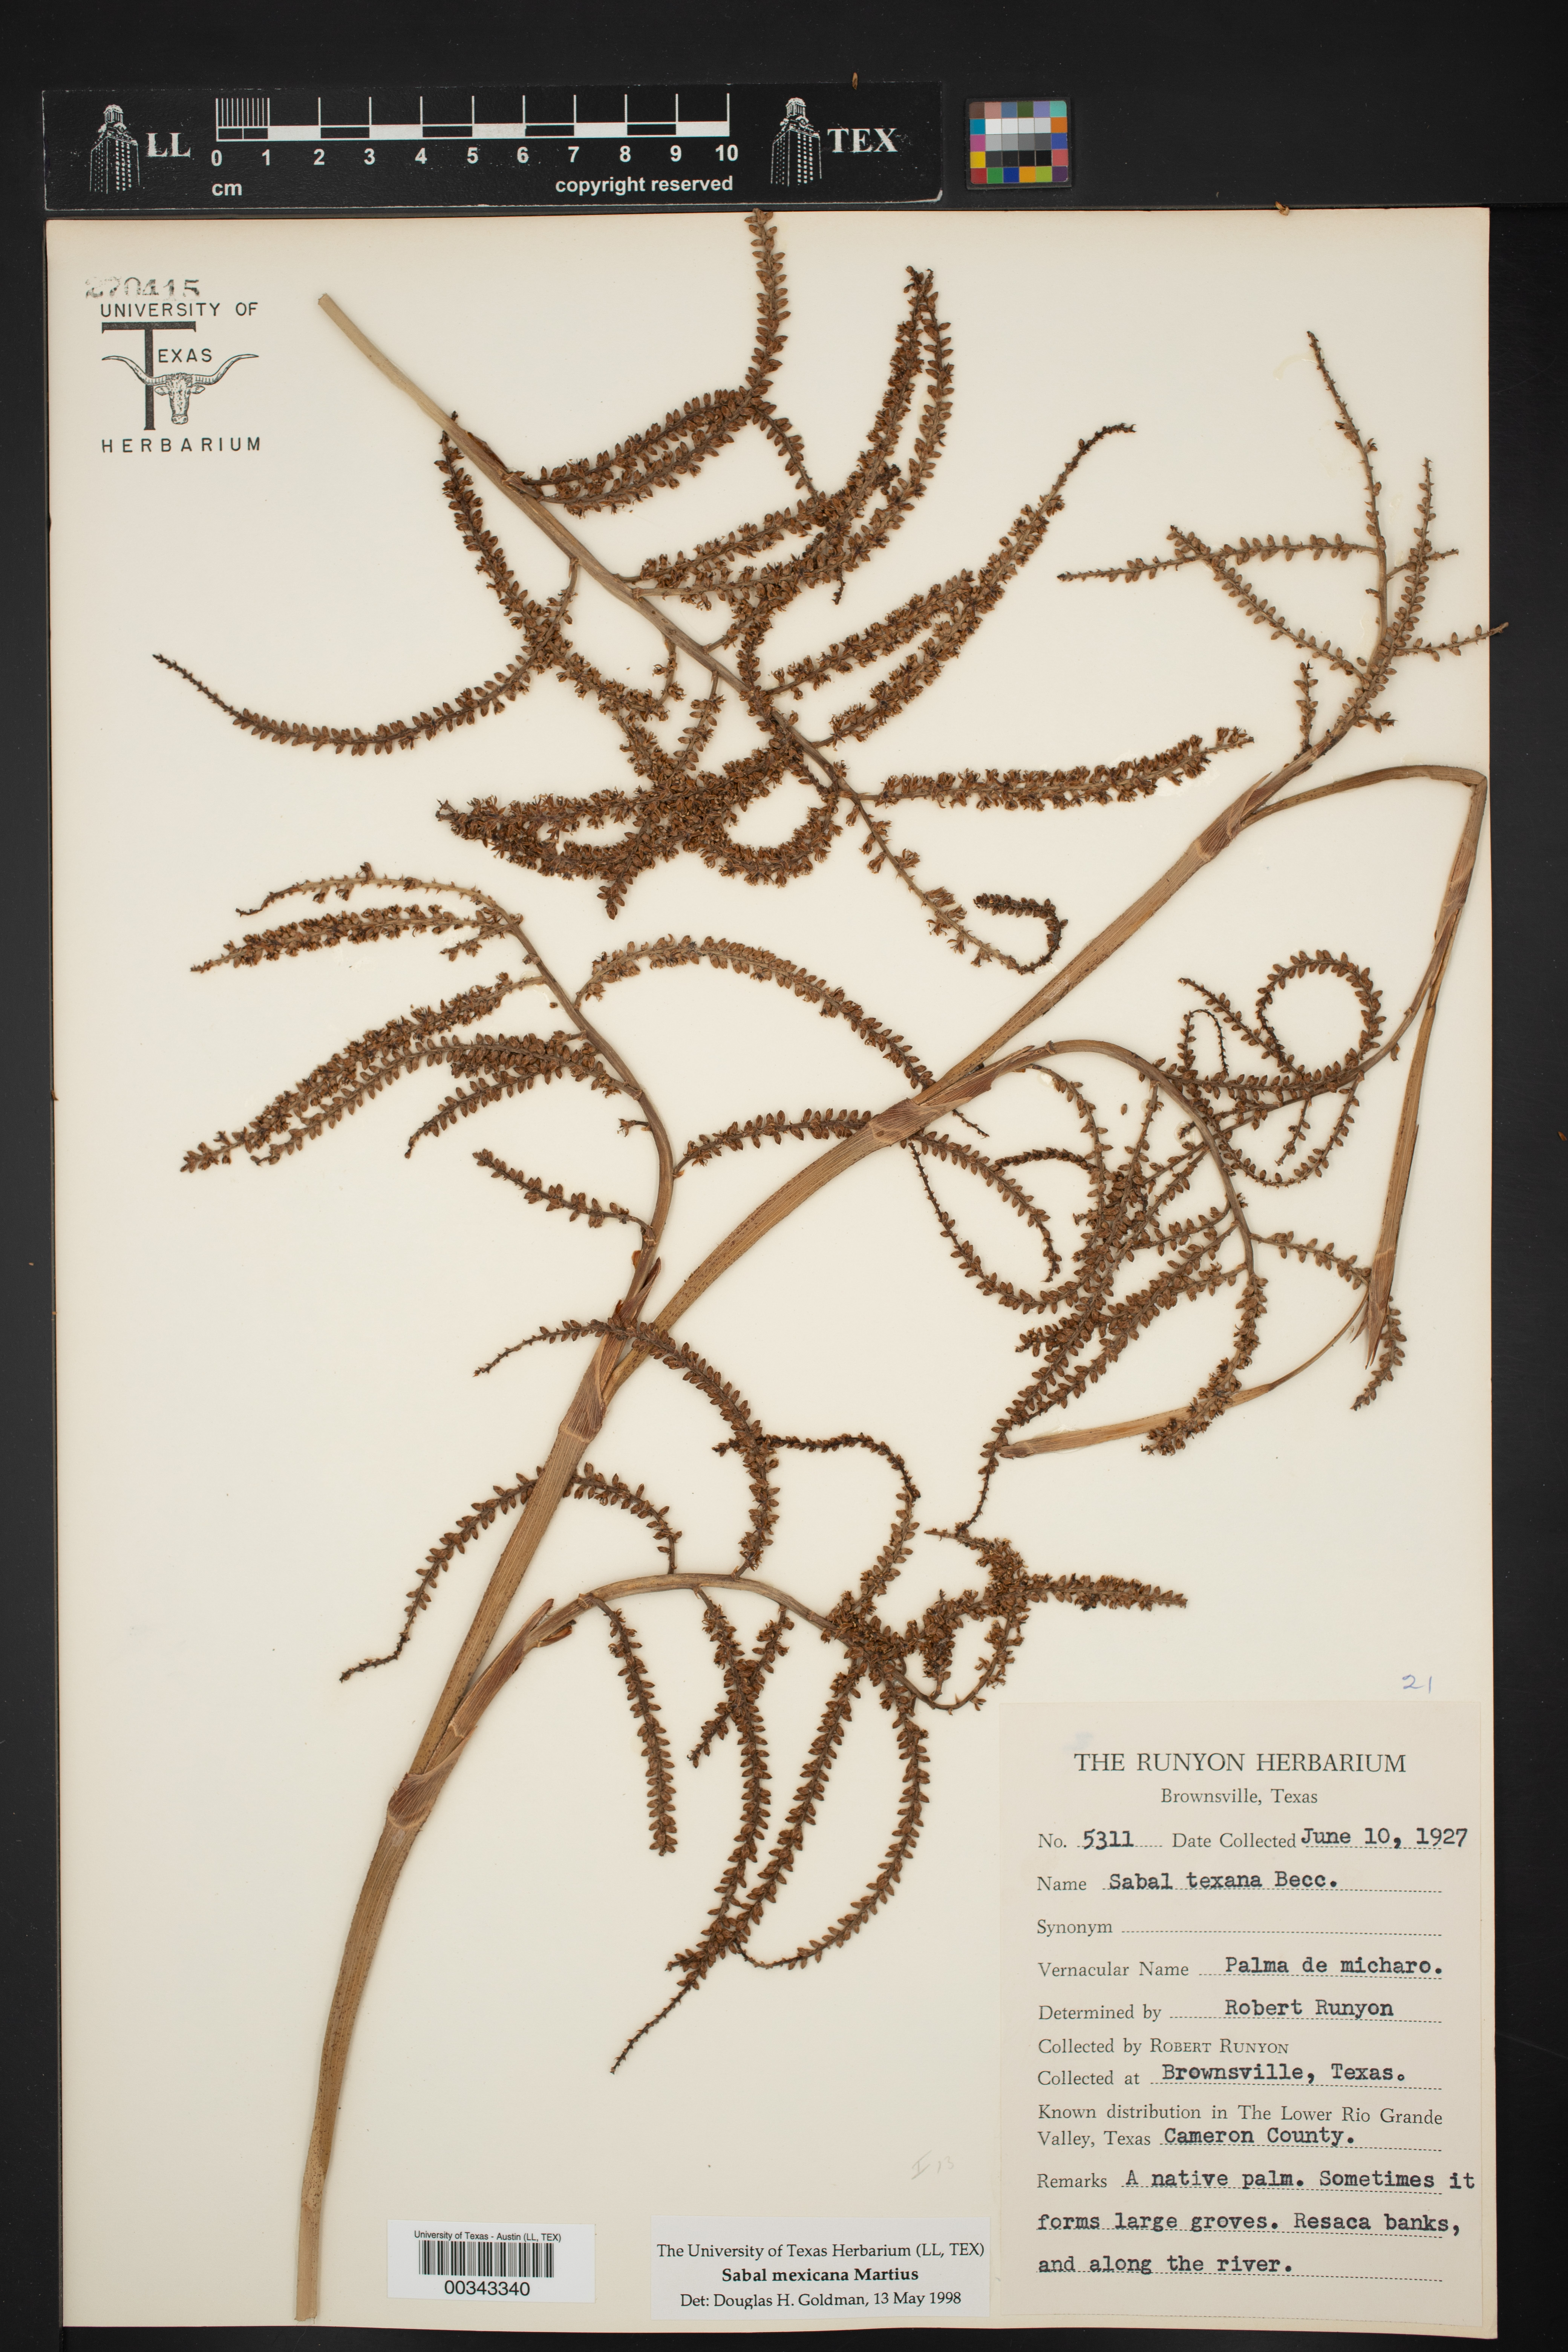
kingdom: Plantae
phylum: Tracheophyta
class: Liliopsida
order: Arecales
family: Arecaceae
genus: Sabal
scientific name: Sabal mexicana
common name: Texas palmetto
